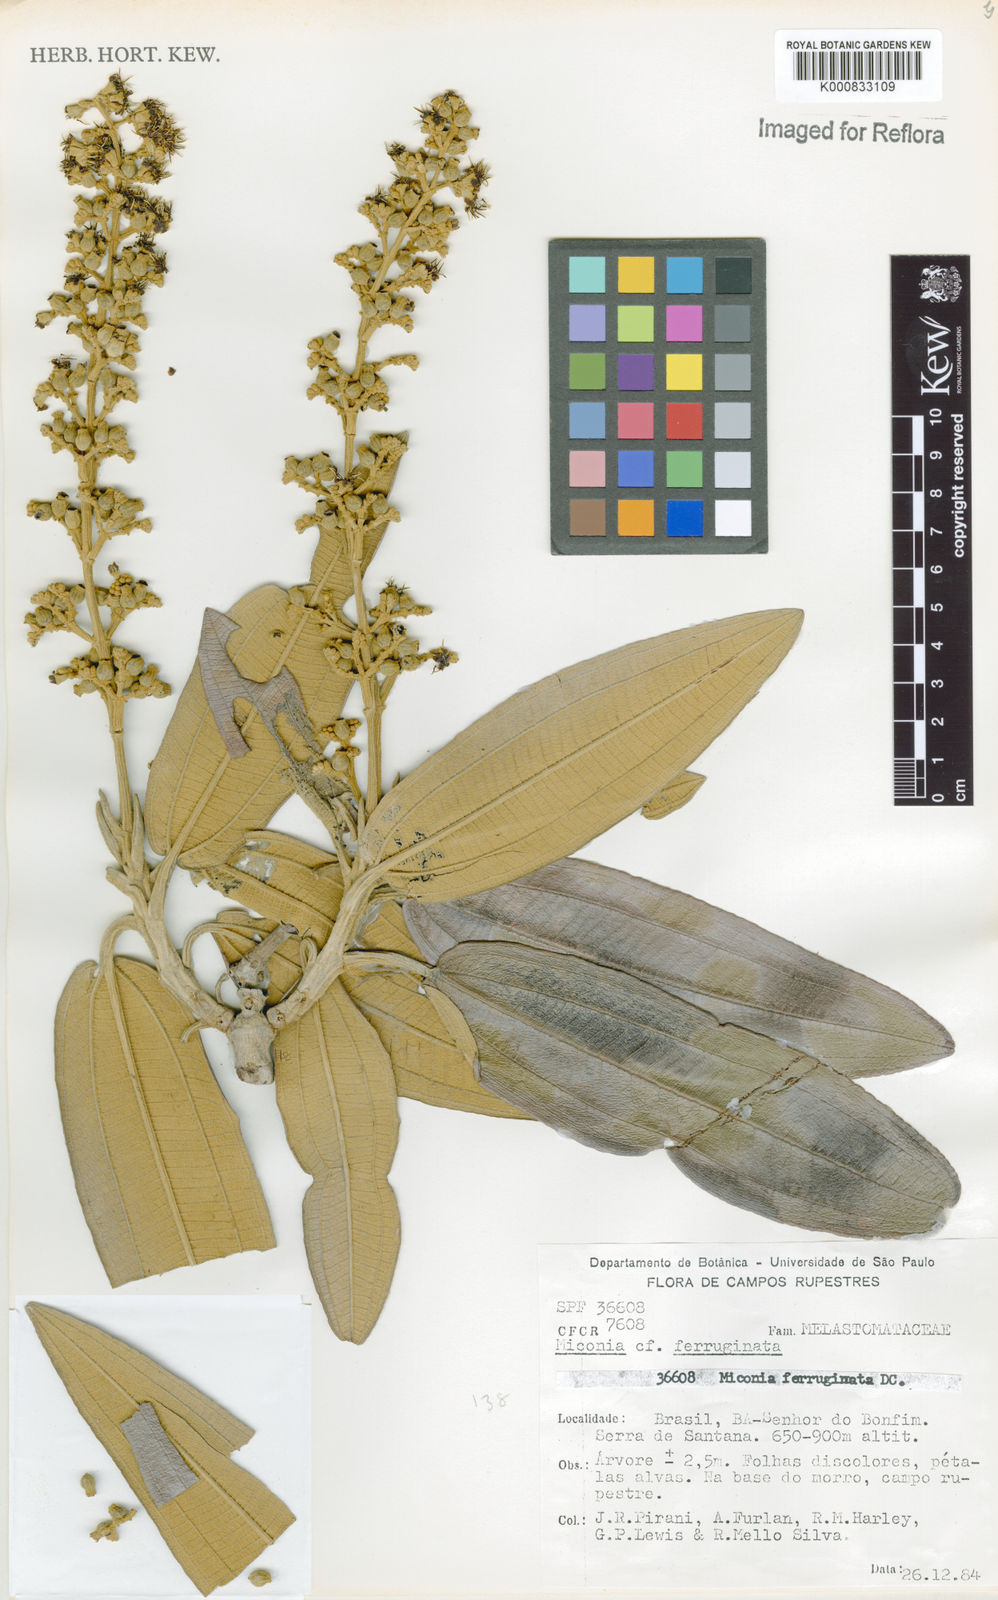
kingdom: Plantae
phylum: Tracheophyta
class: Magnoliopsida
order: Myrtales
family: Melastomataceae
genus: Miconia
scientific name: Miconia ferruginata
